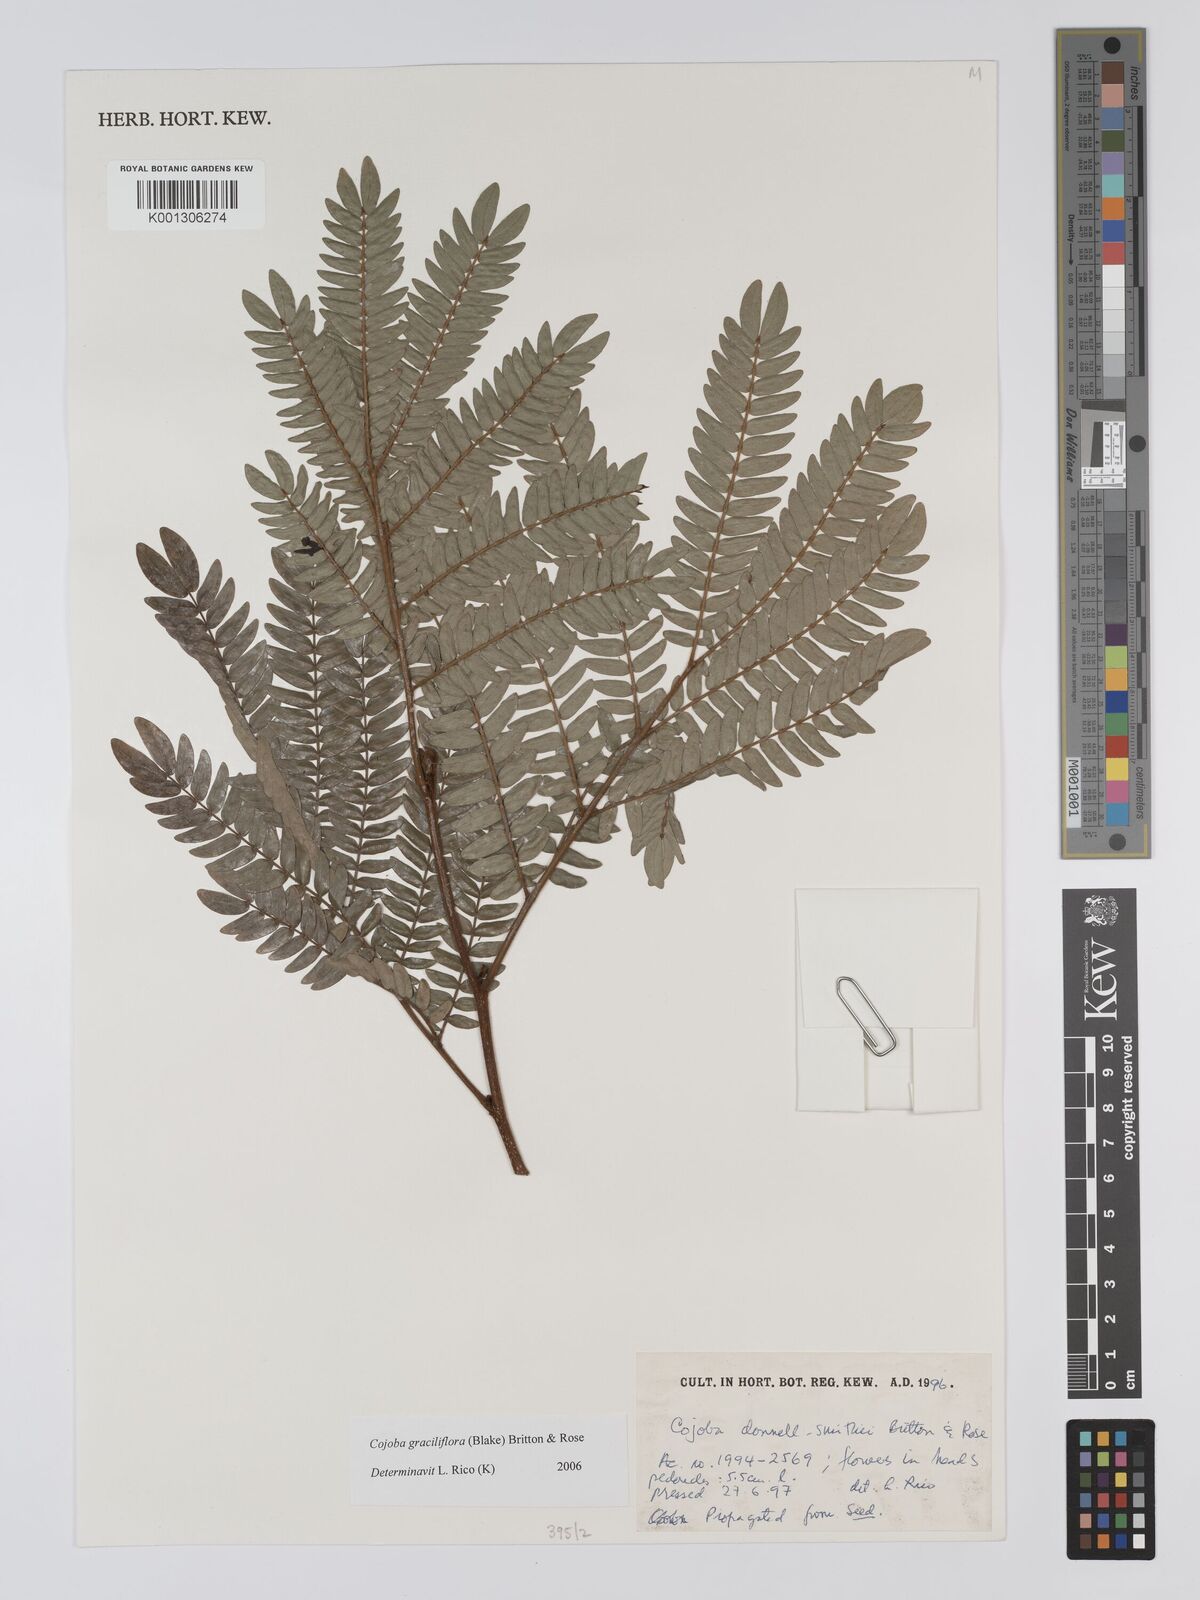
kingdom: Plantae
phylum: Tracheophyta
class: Magnoliopsida
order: Fabales
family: Fabaceae
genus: Cojoba
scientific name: Cojoba graciliflora
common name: Guadeloupe blackbead
